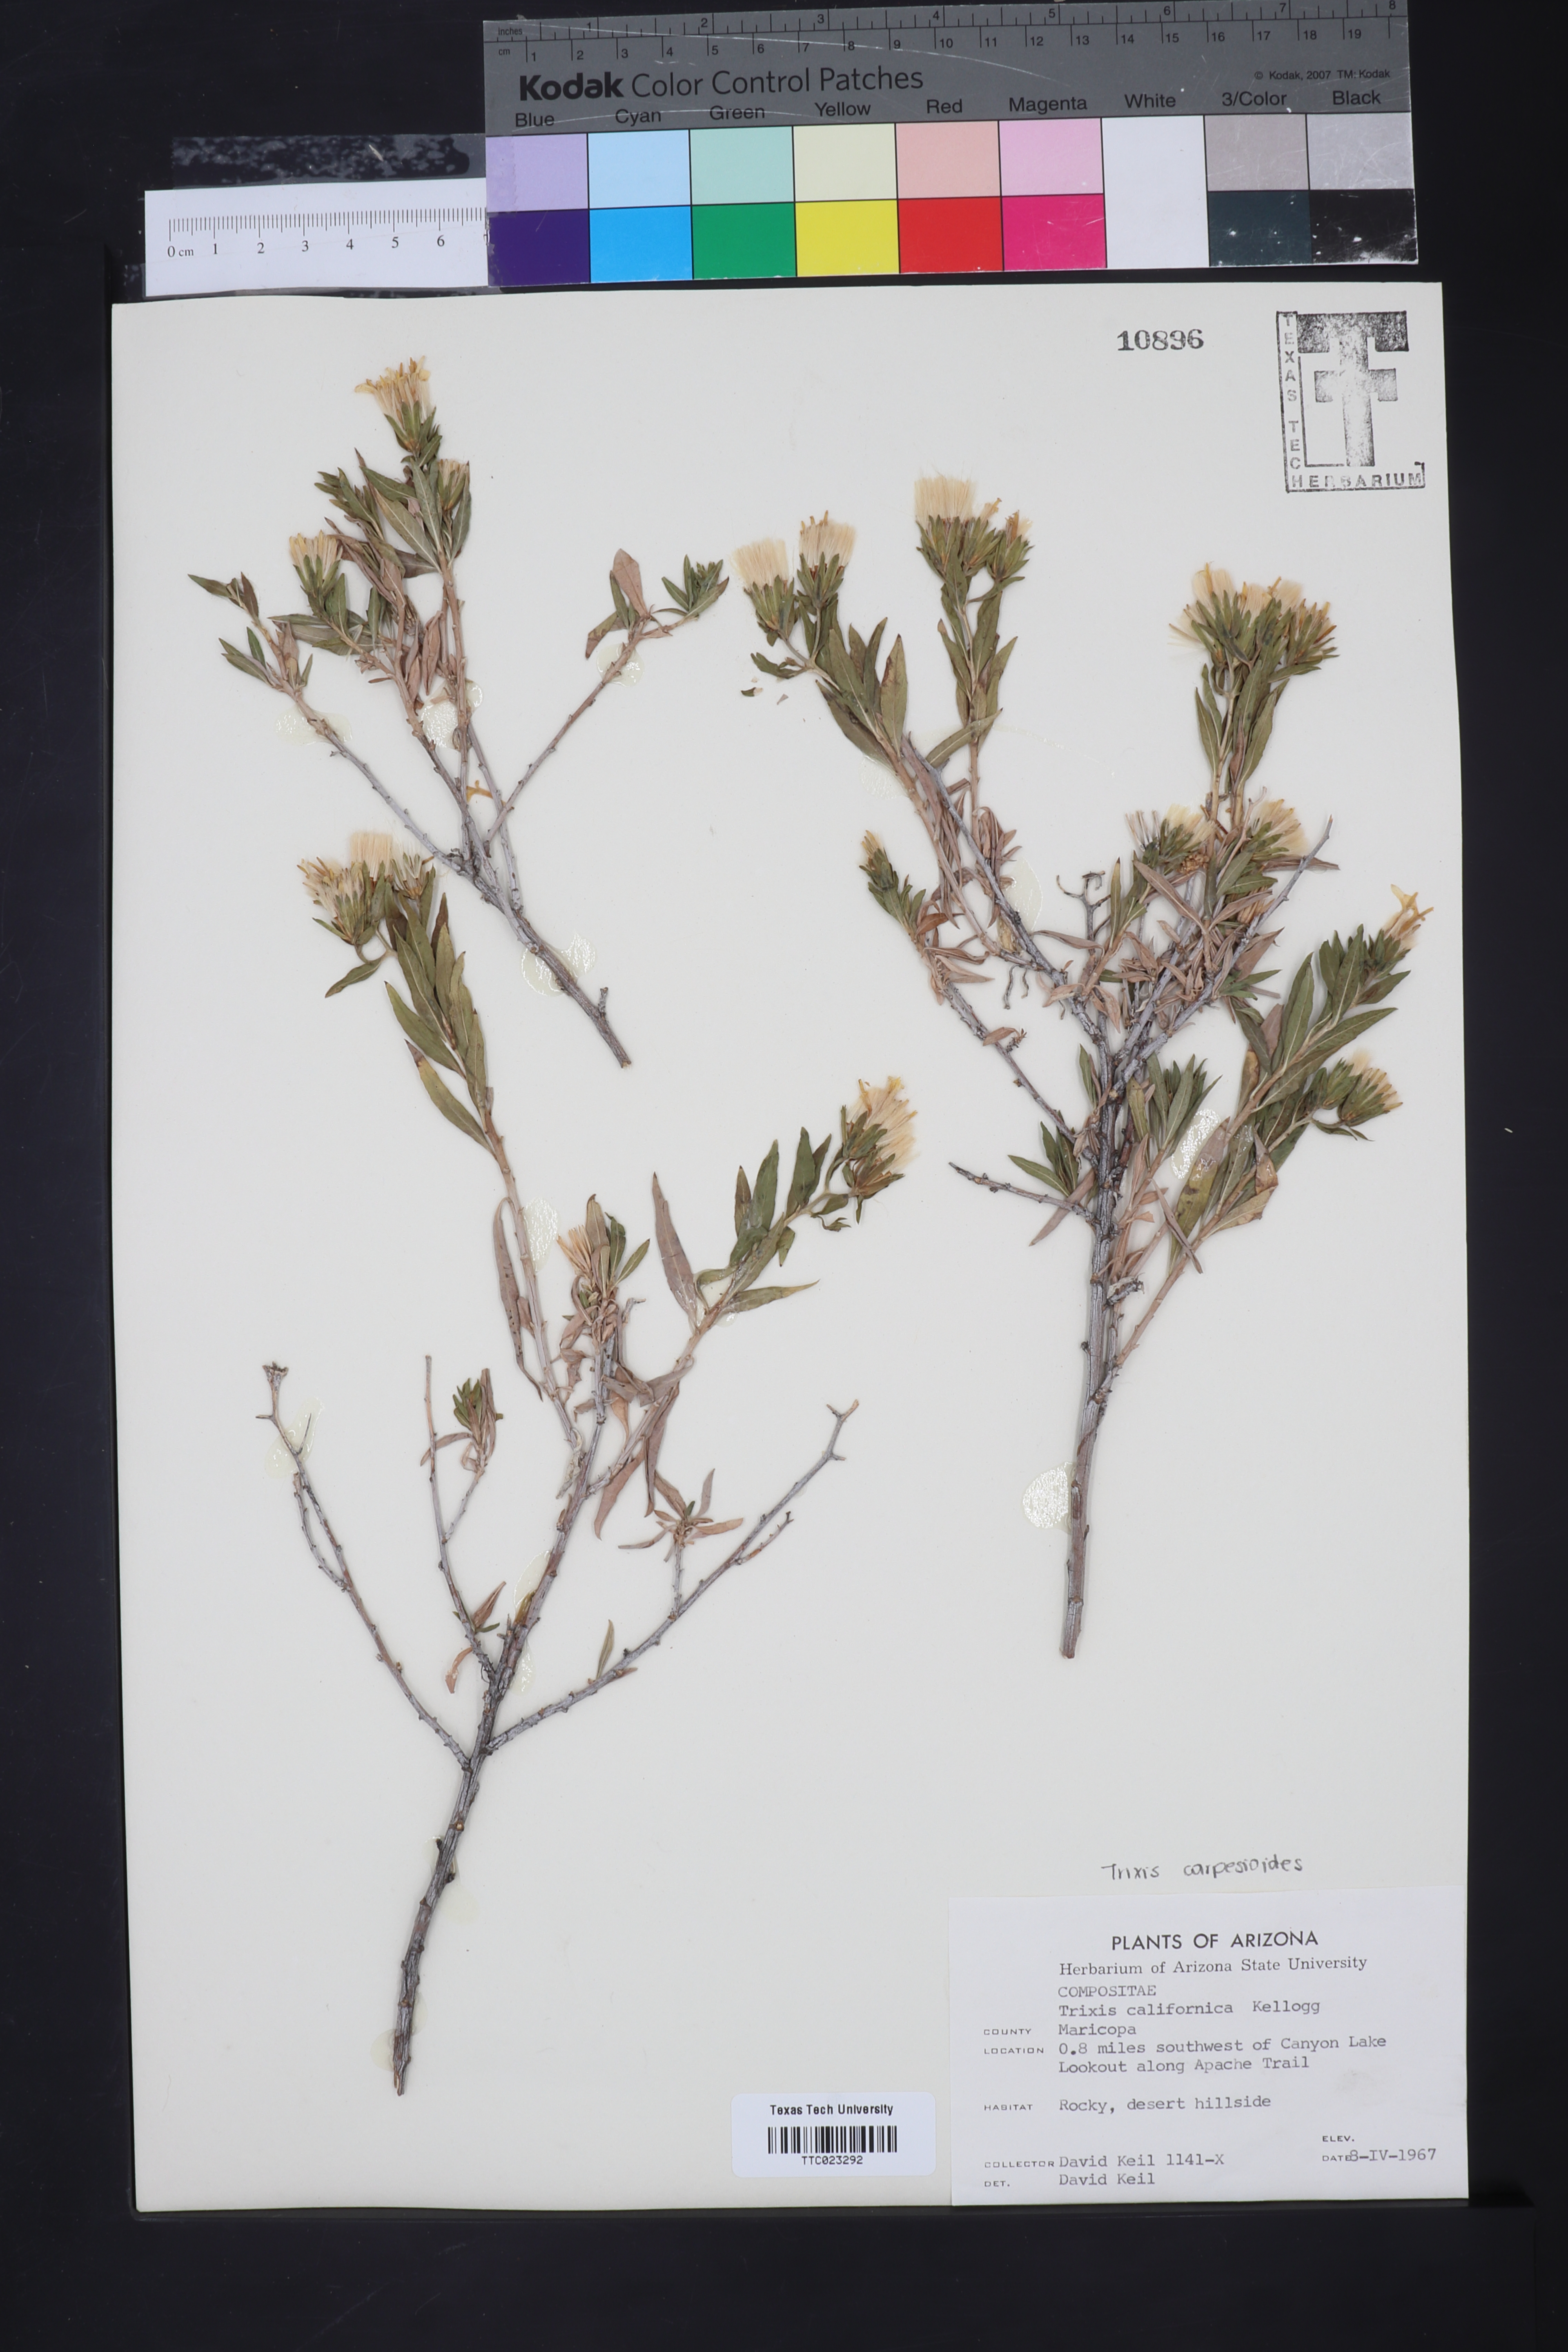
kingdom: Plantae
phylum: Tracheophyta
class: Magnoliopsida
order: Asterales
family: Asteraceae
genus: Trixis
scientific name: Trixis californica
